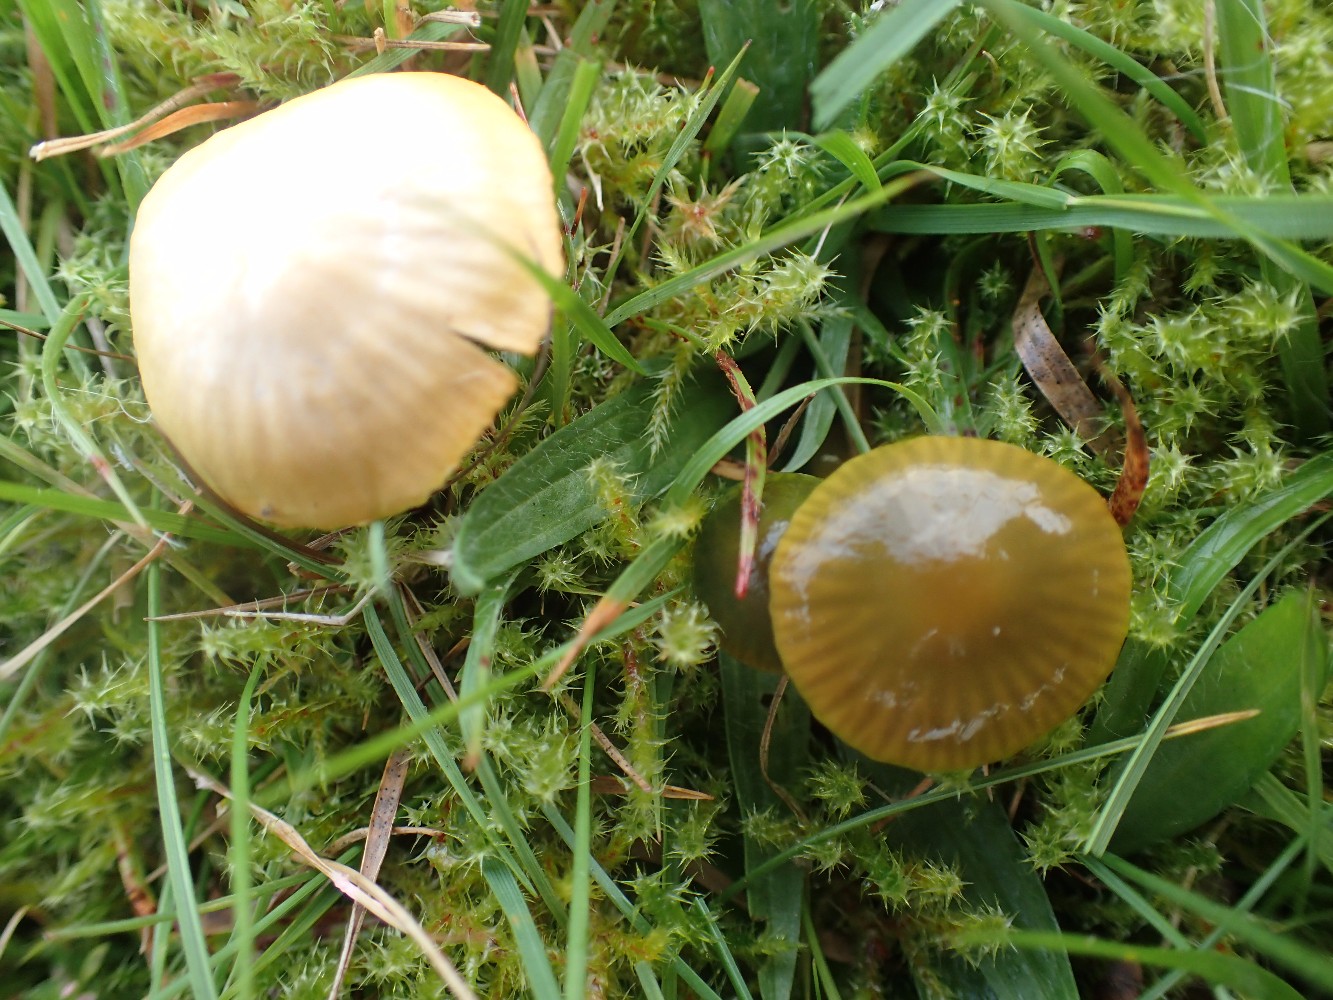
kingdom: Fungi
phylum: Basidiomycota
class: Agaricomycetes
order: Agaricales
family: Hygrophoraceae
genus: Gliophorus
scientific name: Gliophorus psittacinus
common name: papegøje-vokshat
